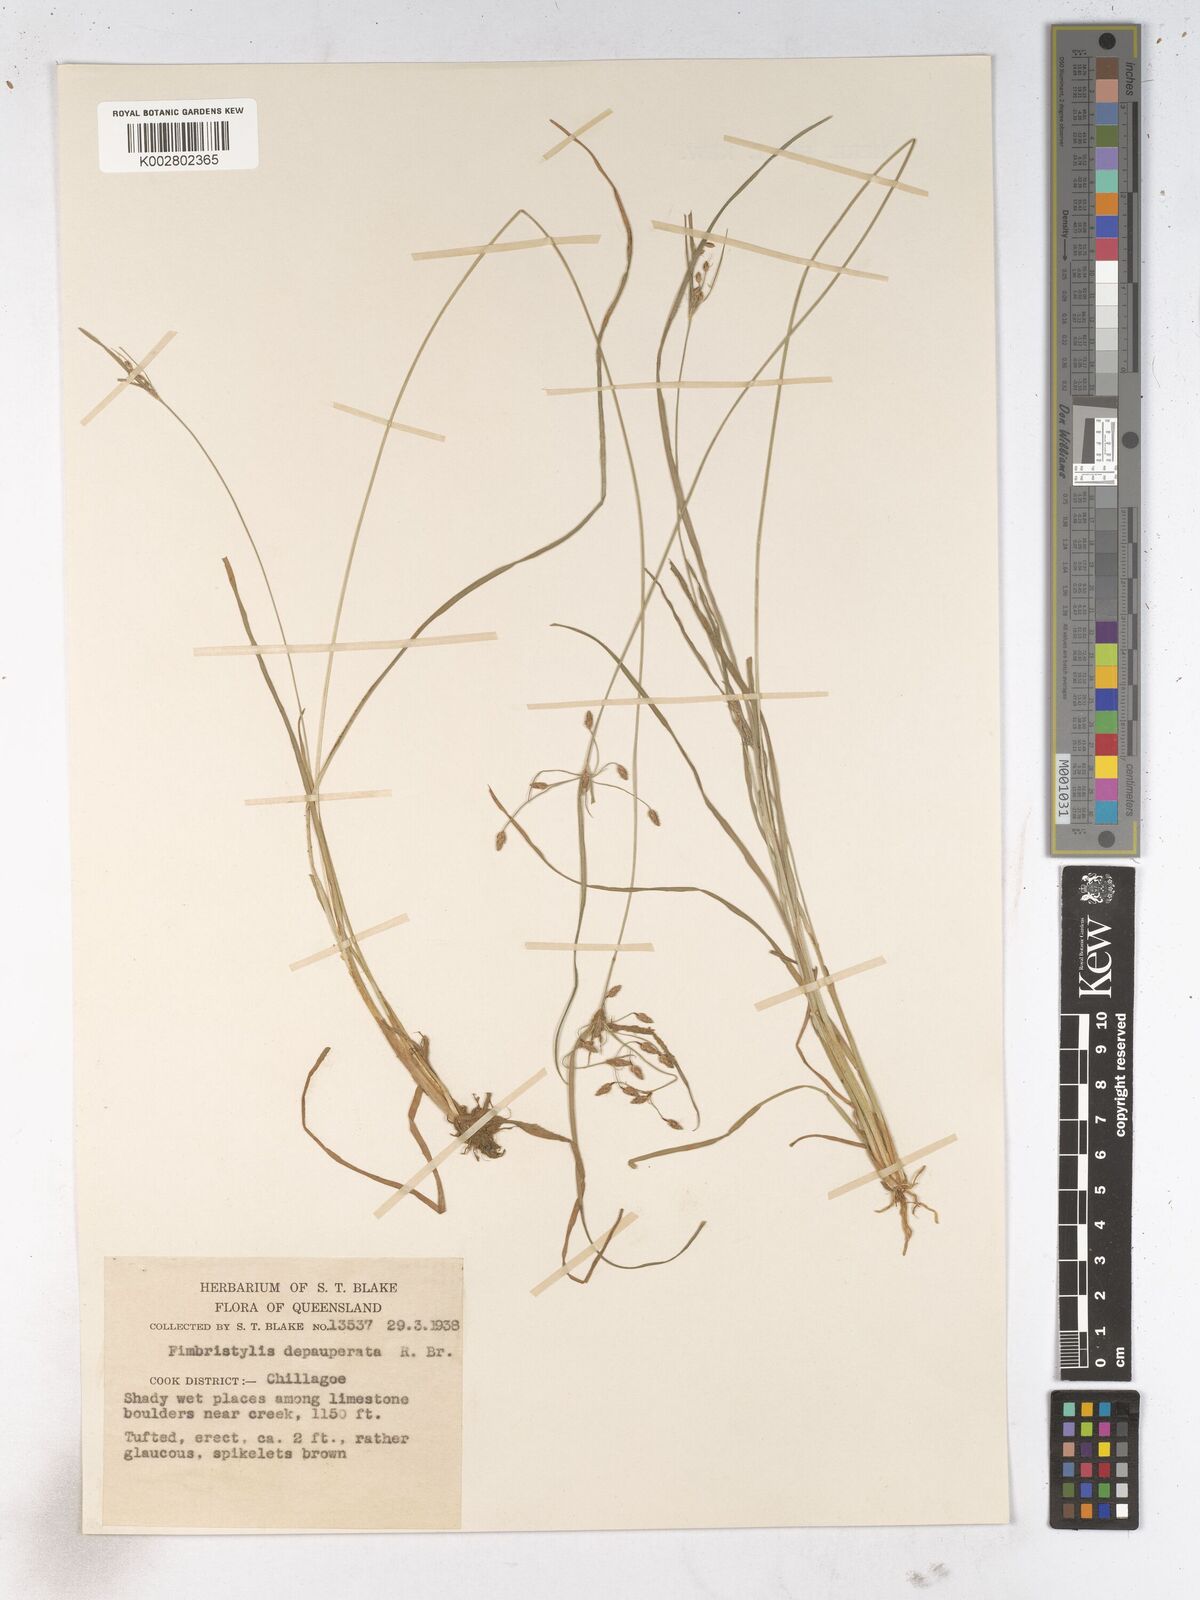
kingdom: Plantae
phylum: Tracheophyta
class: Liliopsida
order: Poales
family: Cyperaceae
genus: Fimbristylis
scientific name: Fimbristylis dichotoma
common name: Forked fimbry
